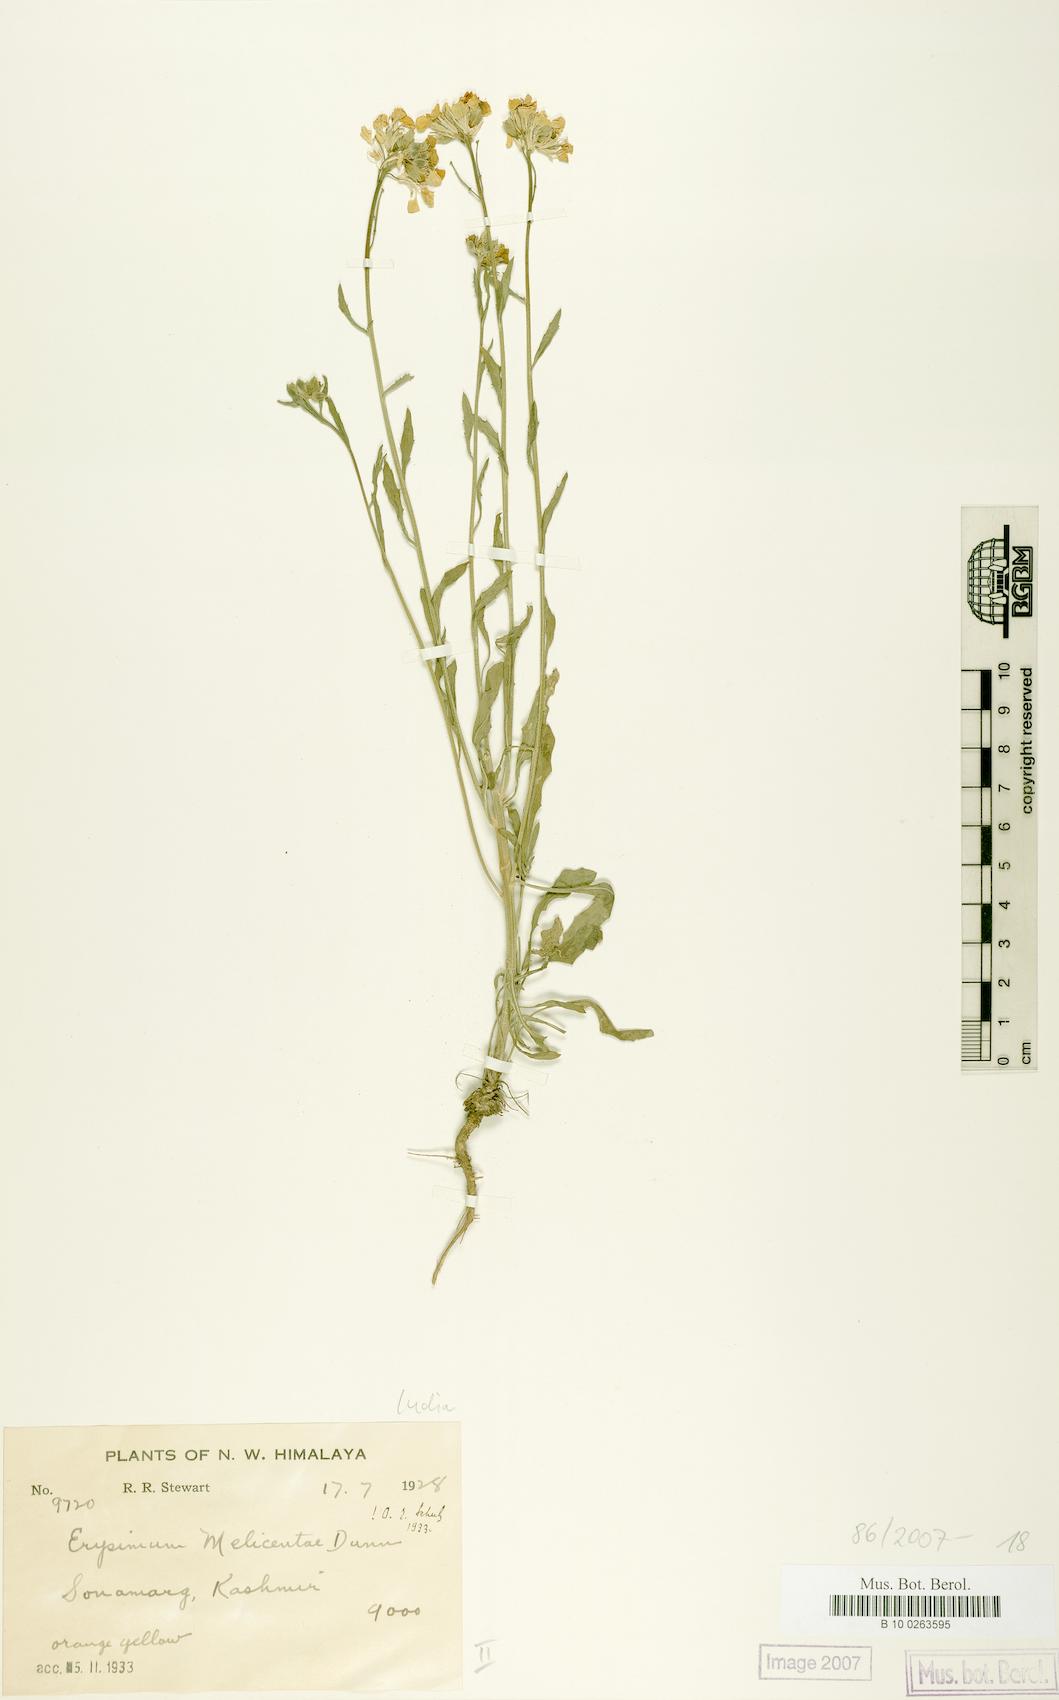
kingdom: Plantae
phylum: Tracheophyta
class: Magnoliopsida
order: Brassicales
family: Brassicaceae
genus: Erysimum
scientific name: Erysimum melicentae
